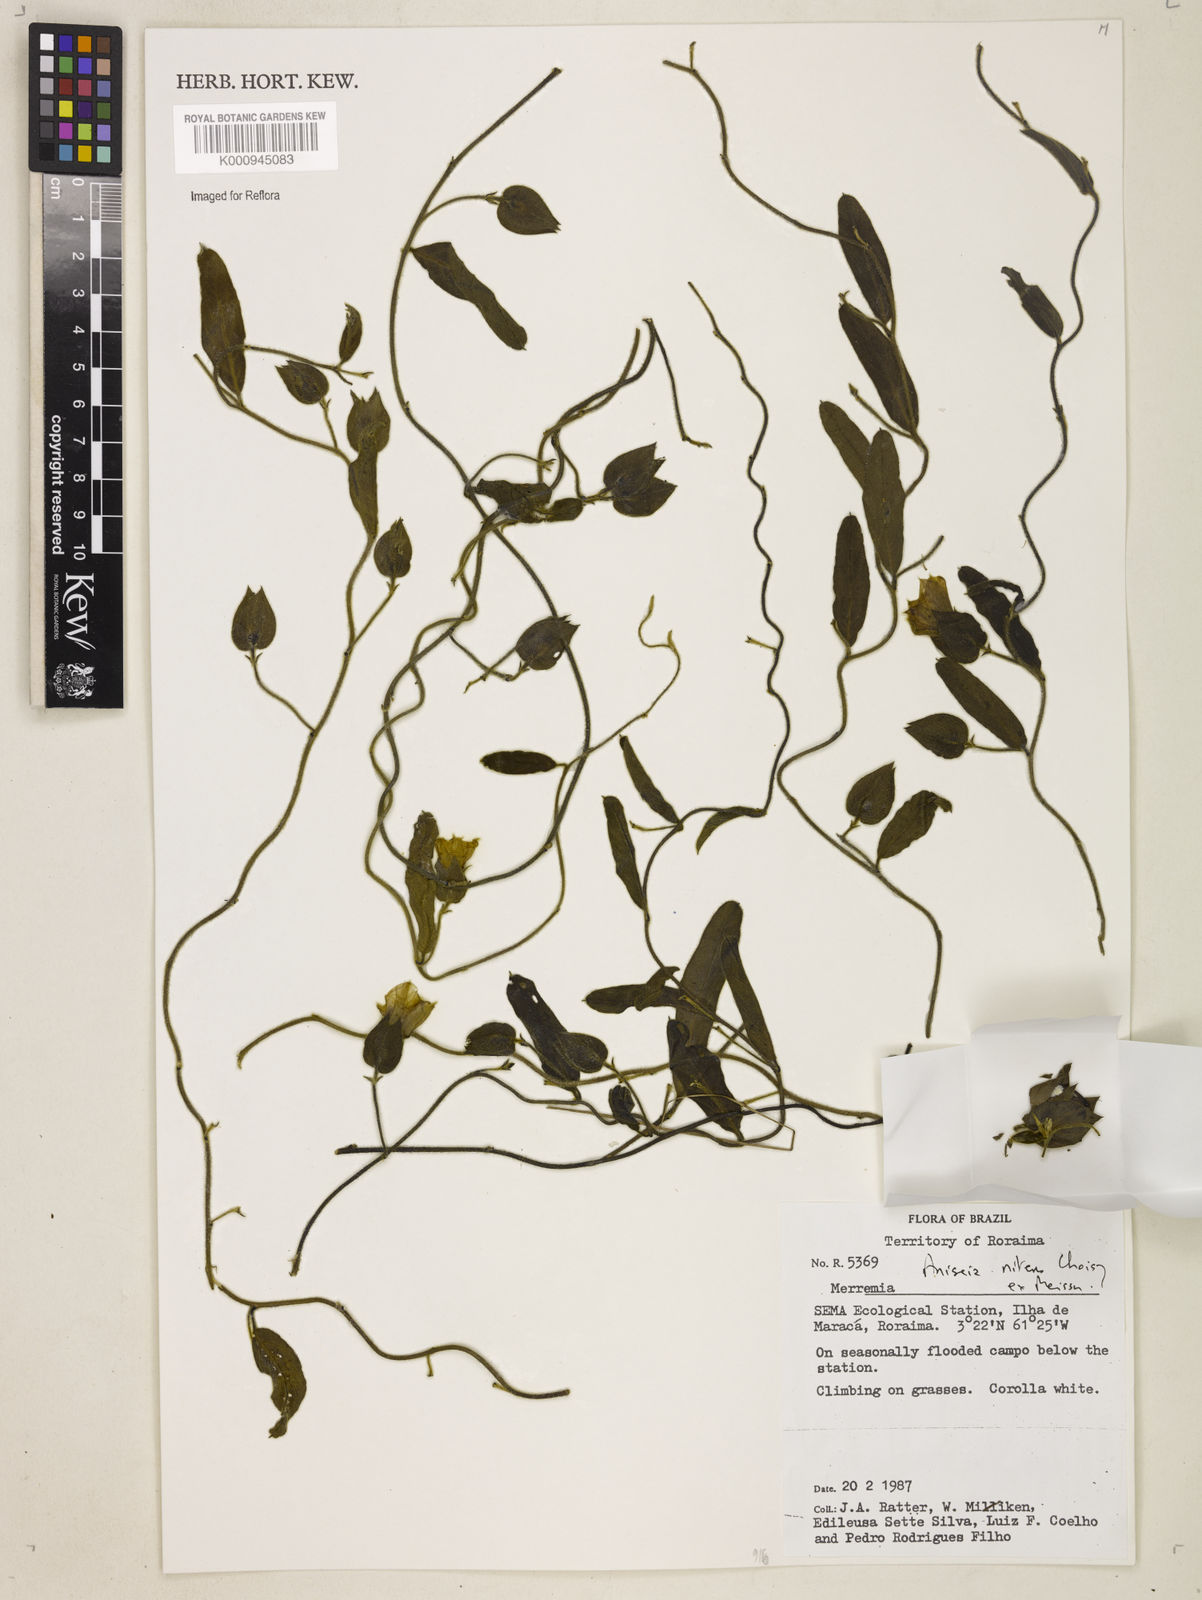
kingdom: Plantae
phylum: Tracheophyta
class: Magnoliopsida
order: Solanales
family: Convolvulaceae
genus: Aniseia
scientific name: Aniseia martinicensis
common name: Kulayadambu
